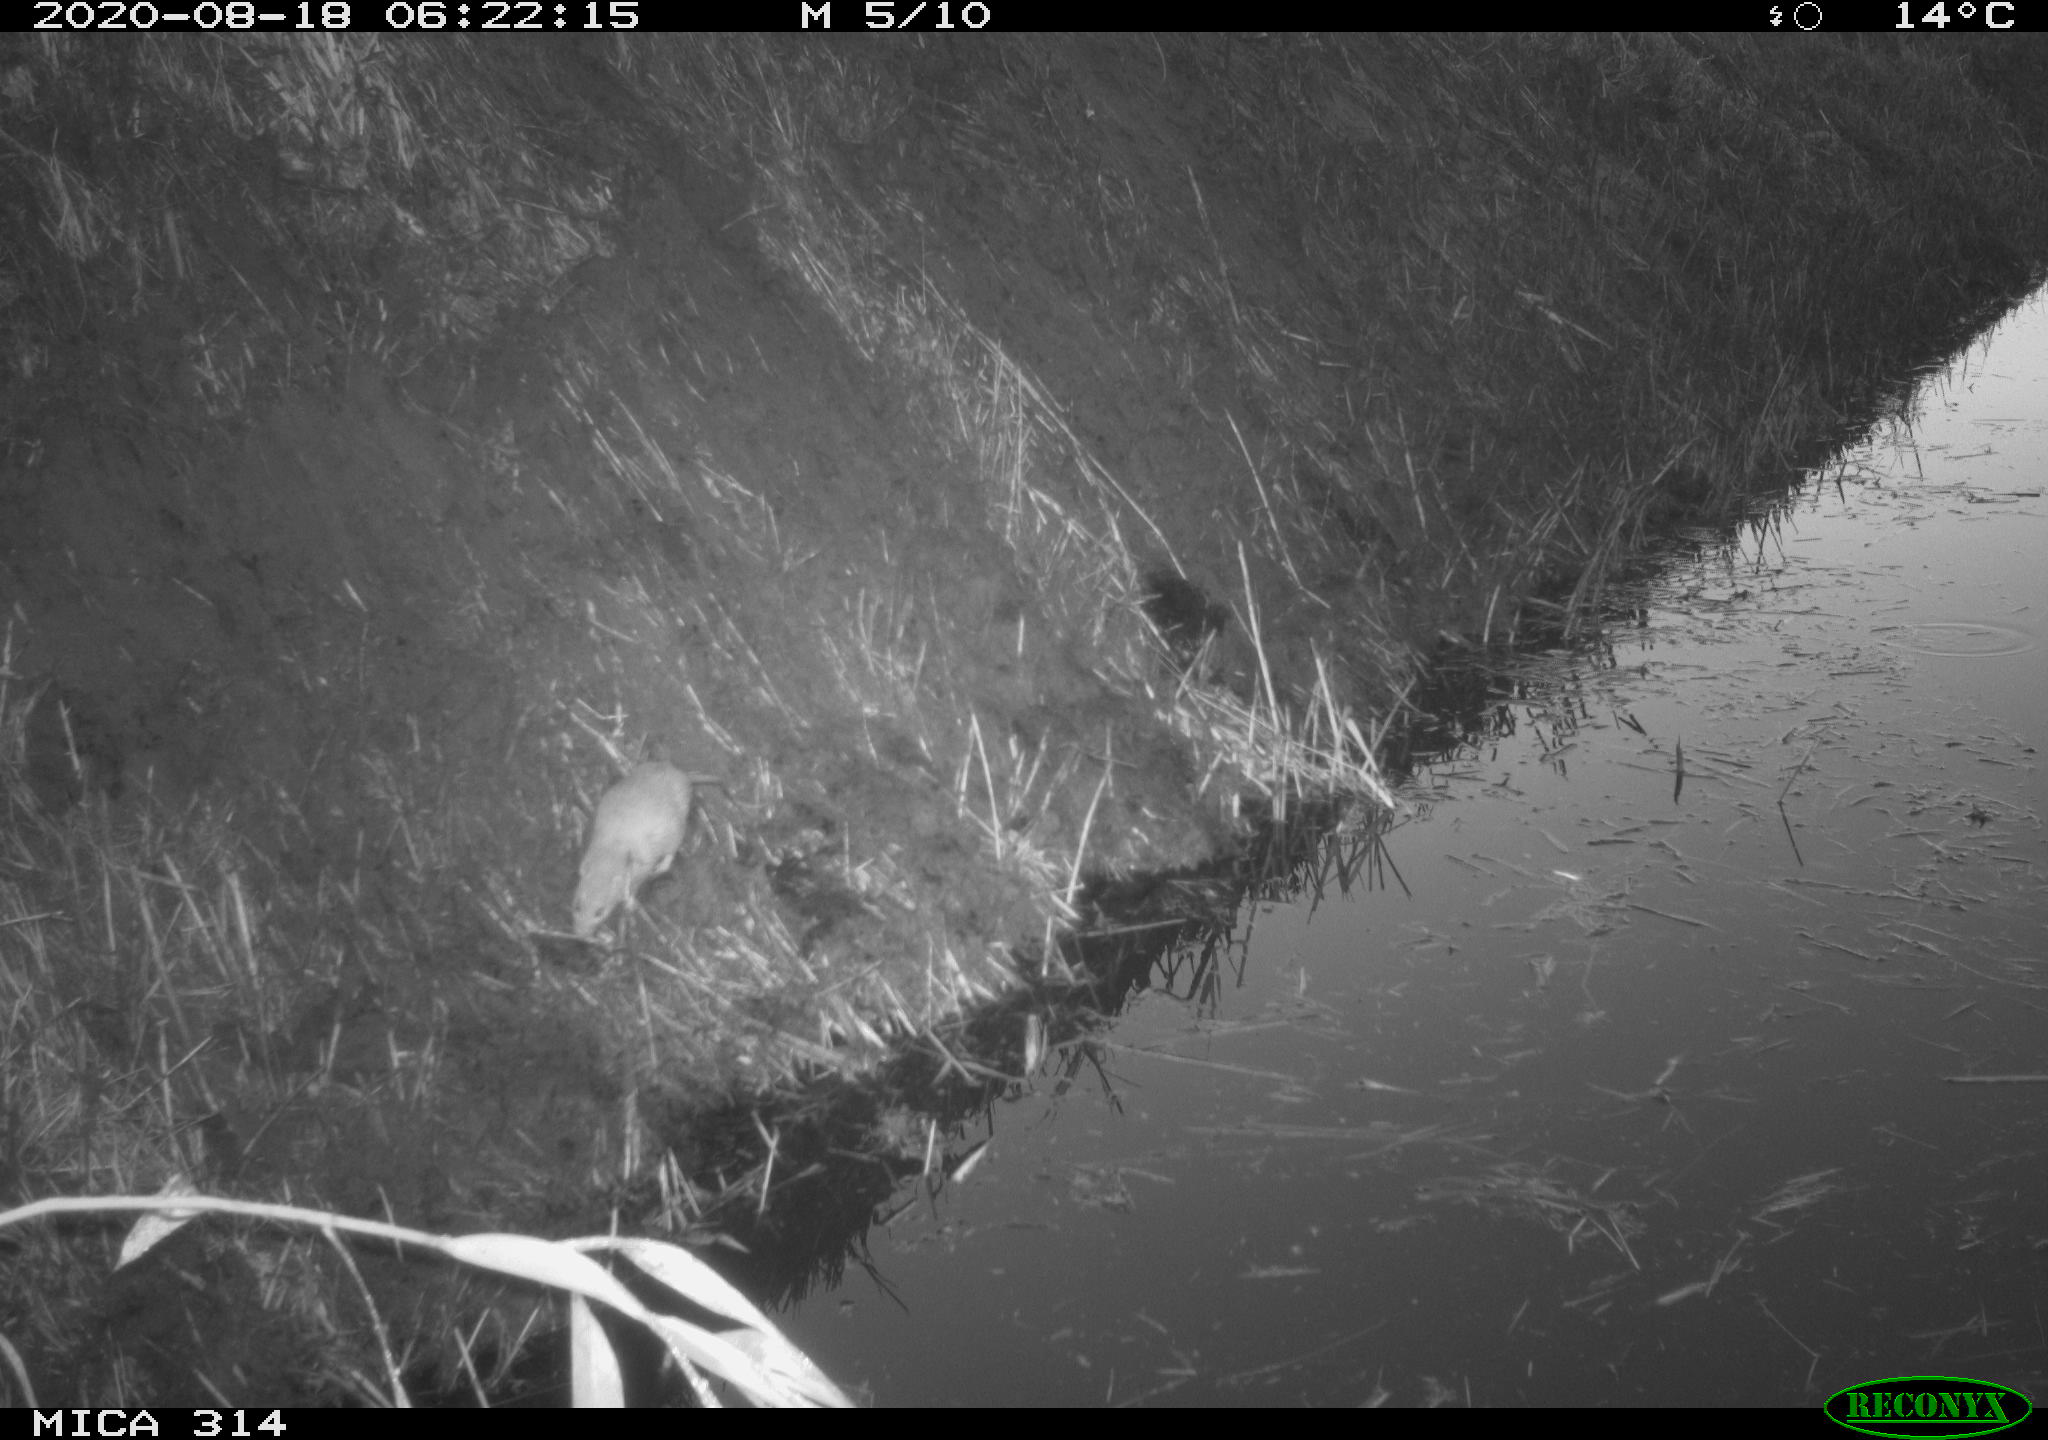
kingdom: Animalia
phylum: Chordata
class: Mammalia
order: Rodentia
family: Muridae
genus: Rattus
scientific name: Rattus norvegicus
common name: Brown rat
